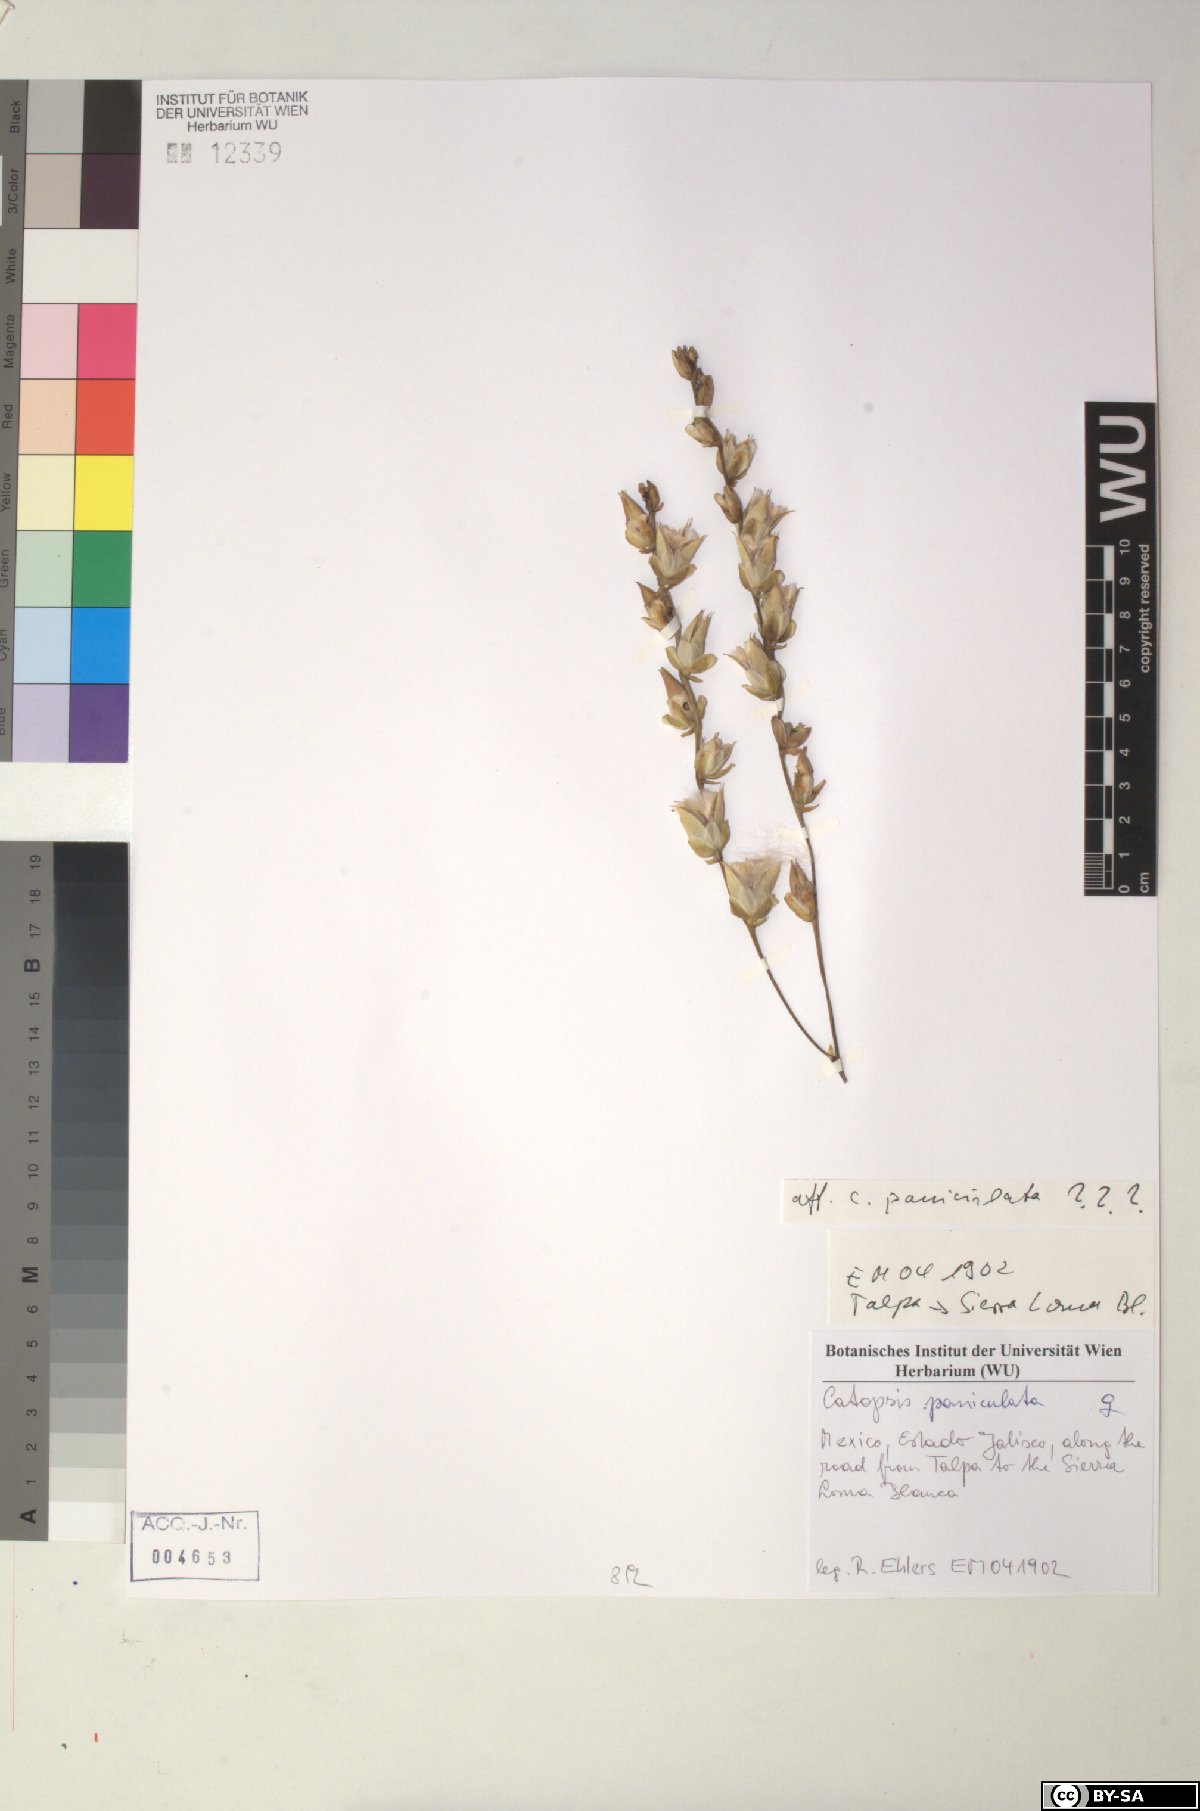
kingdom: Plantae
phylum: Tracheophyta
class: Liliopsida
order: Poales
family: Bromeliaceae
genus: Catopsis
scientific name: Catopsis paniculata
